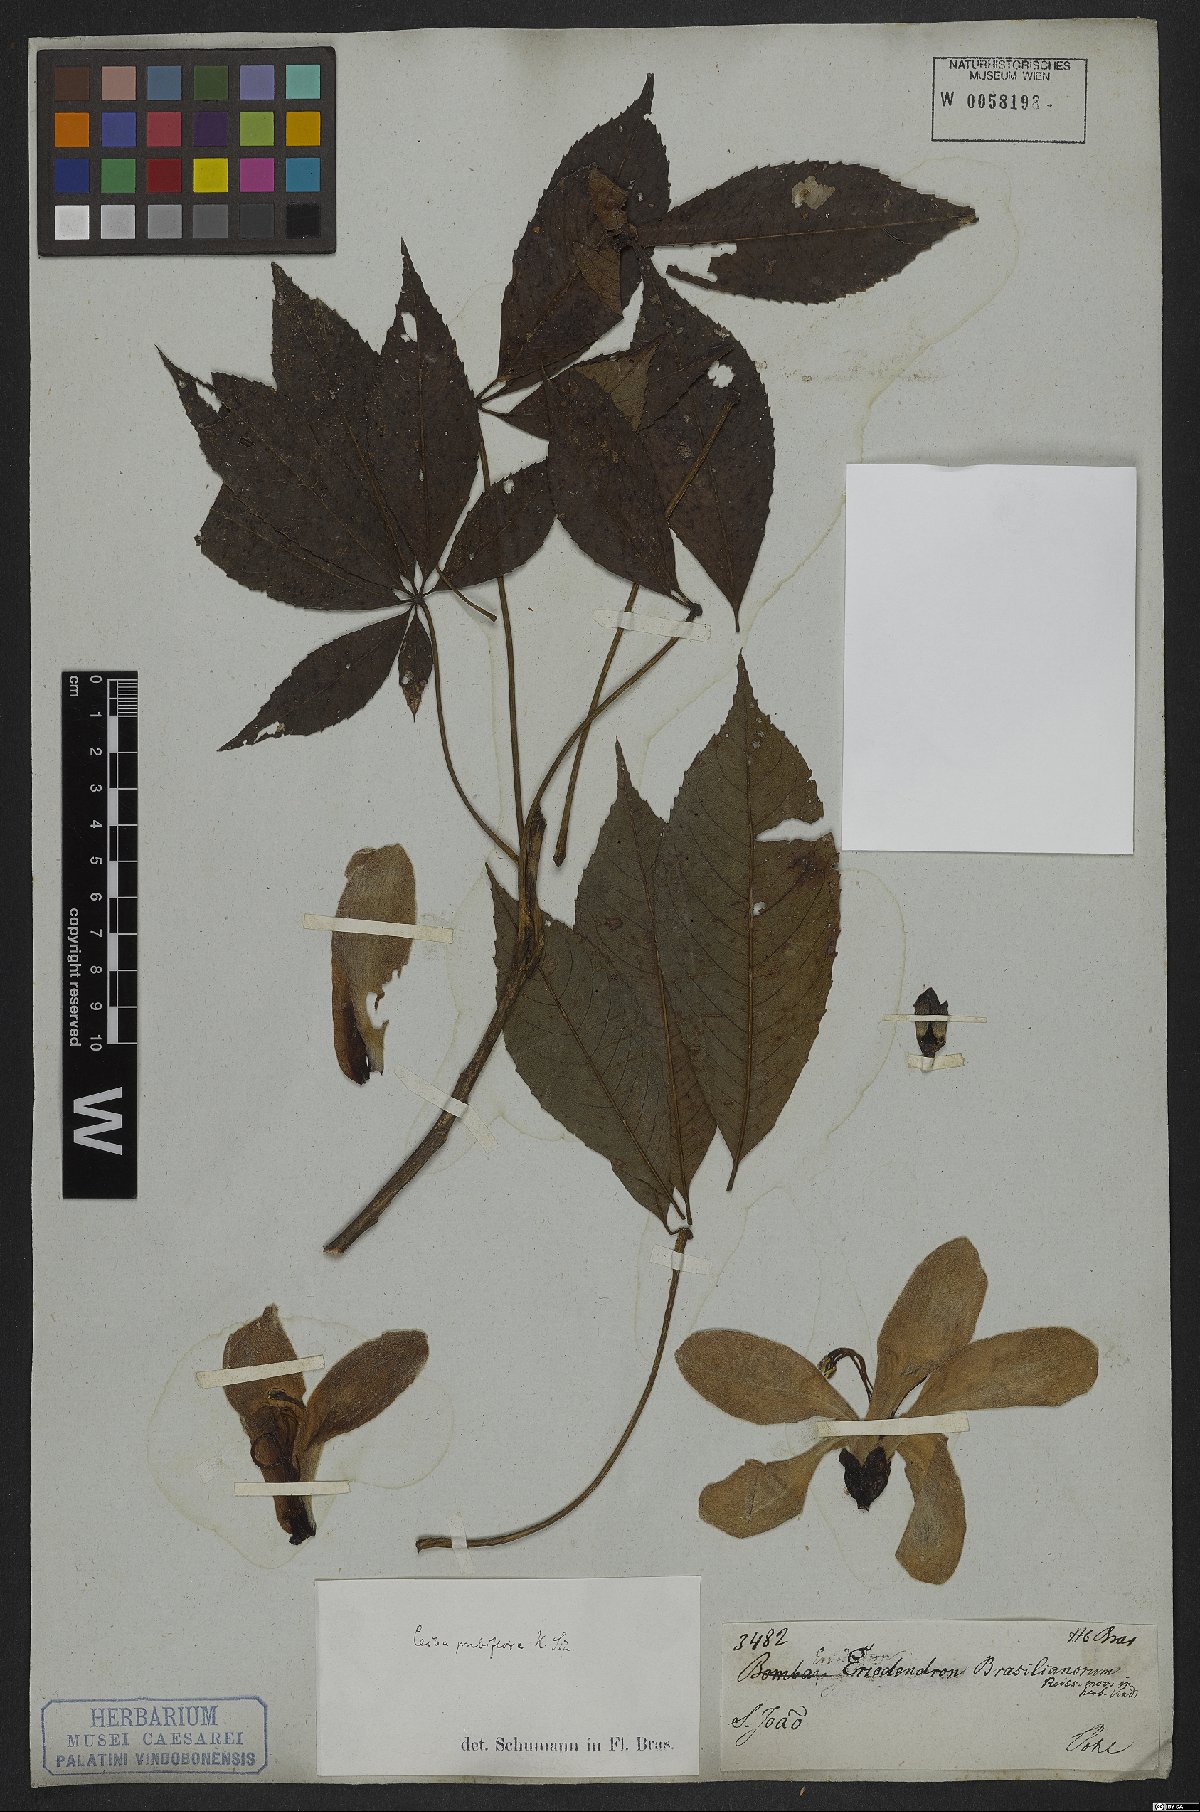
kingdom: Plantae
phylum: Tracheophyta
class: Magnoliopsida
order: Malvales
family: Malvaceae
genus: Ceiba
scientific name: Ceiba pubiflora
